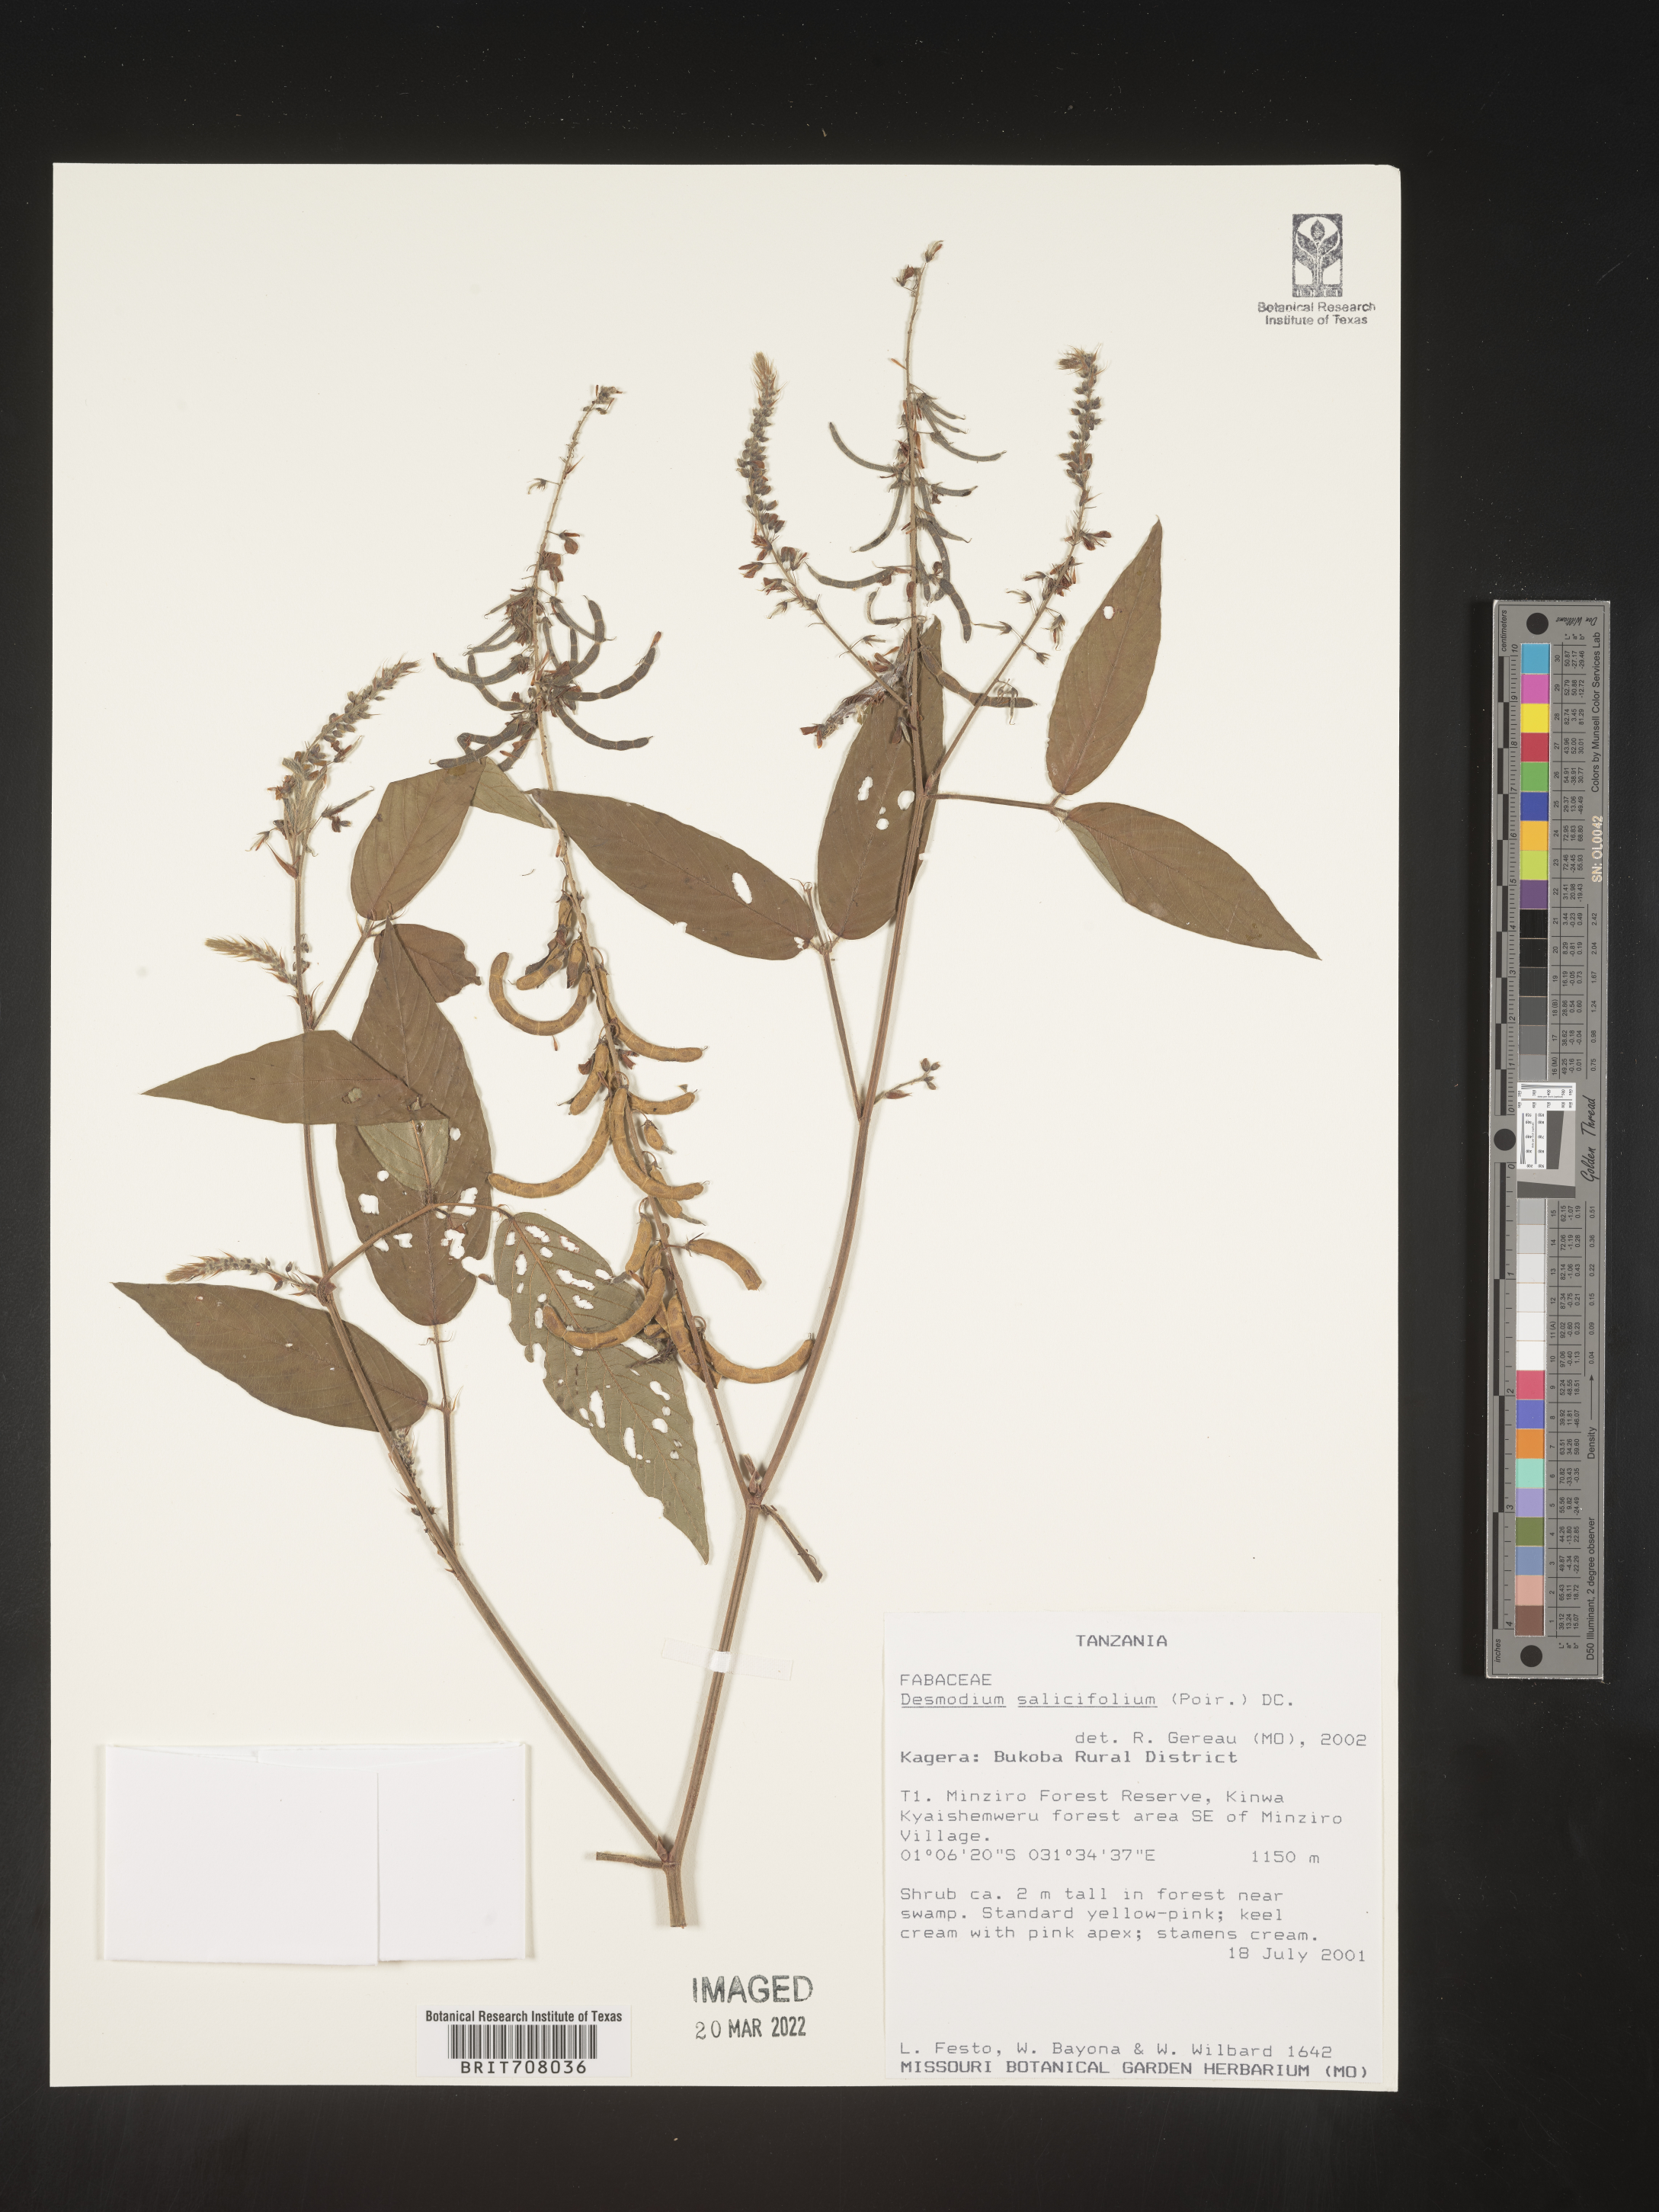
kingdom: Plantae
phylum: Tracheophyta
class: Magnoliopsida
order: Fabales
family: Fabaceae
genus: Desmodium
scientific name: Desmodium
